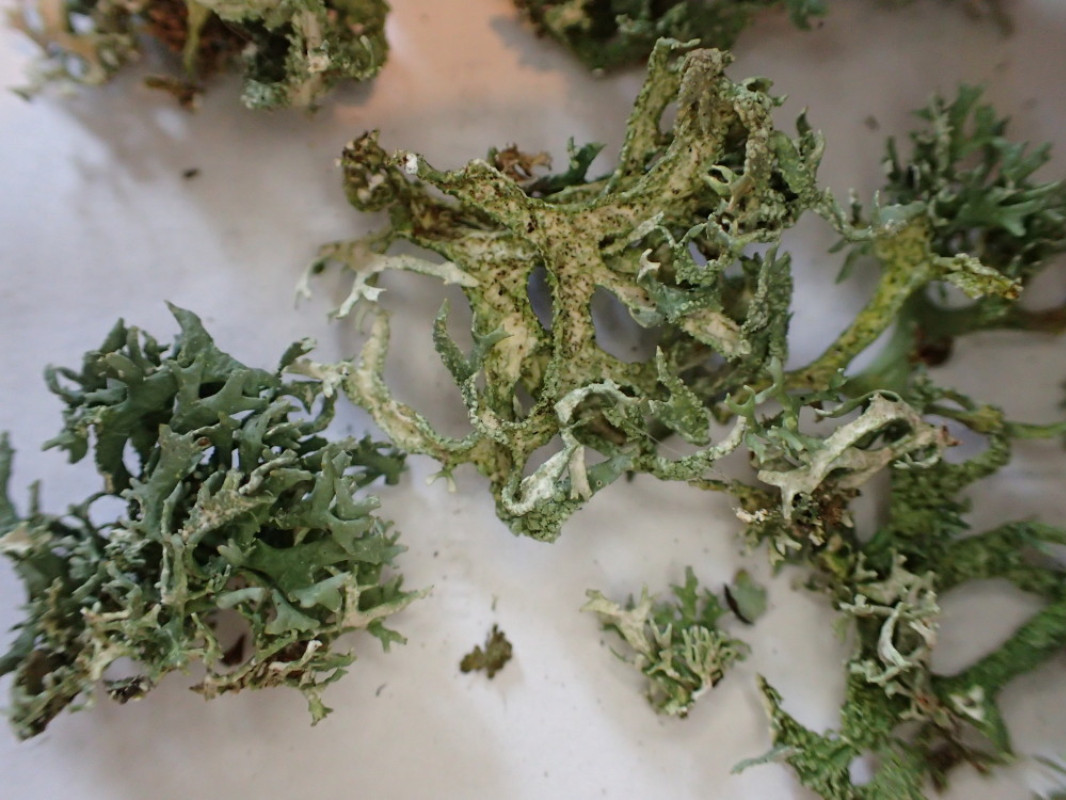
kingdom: Fungi
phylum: Ascomycota
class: Lecanoromycetes
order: Lecanorales
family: Parmeliaceae
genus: Evernia
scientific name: Evernia prunastri
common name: almindelig slåenlav
